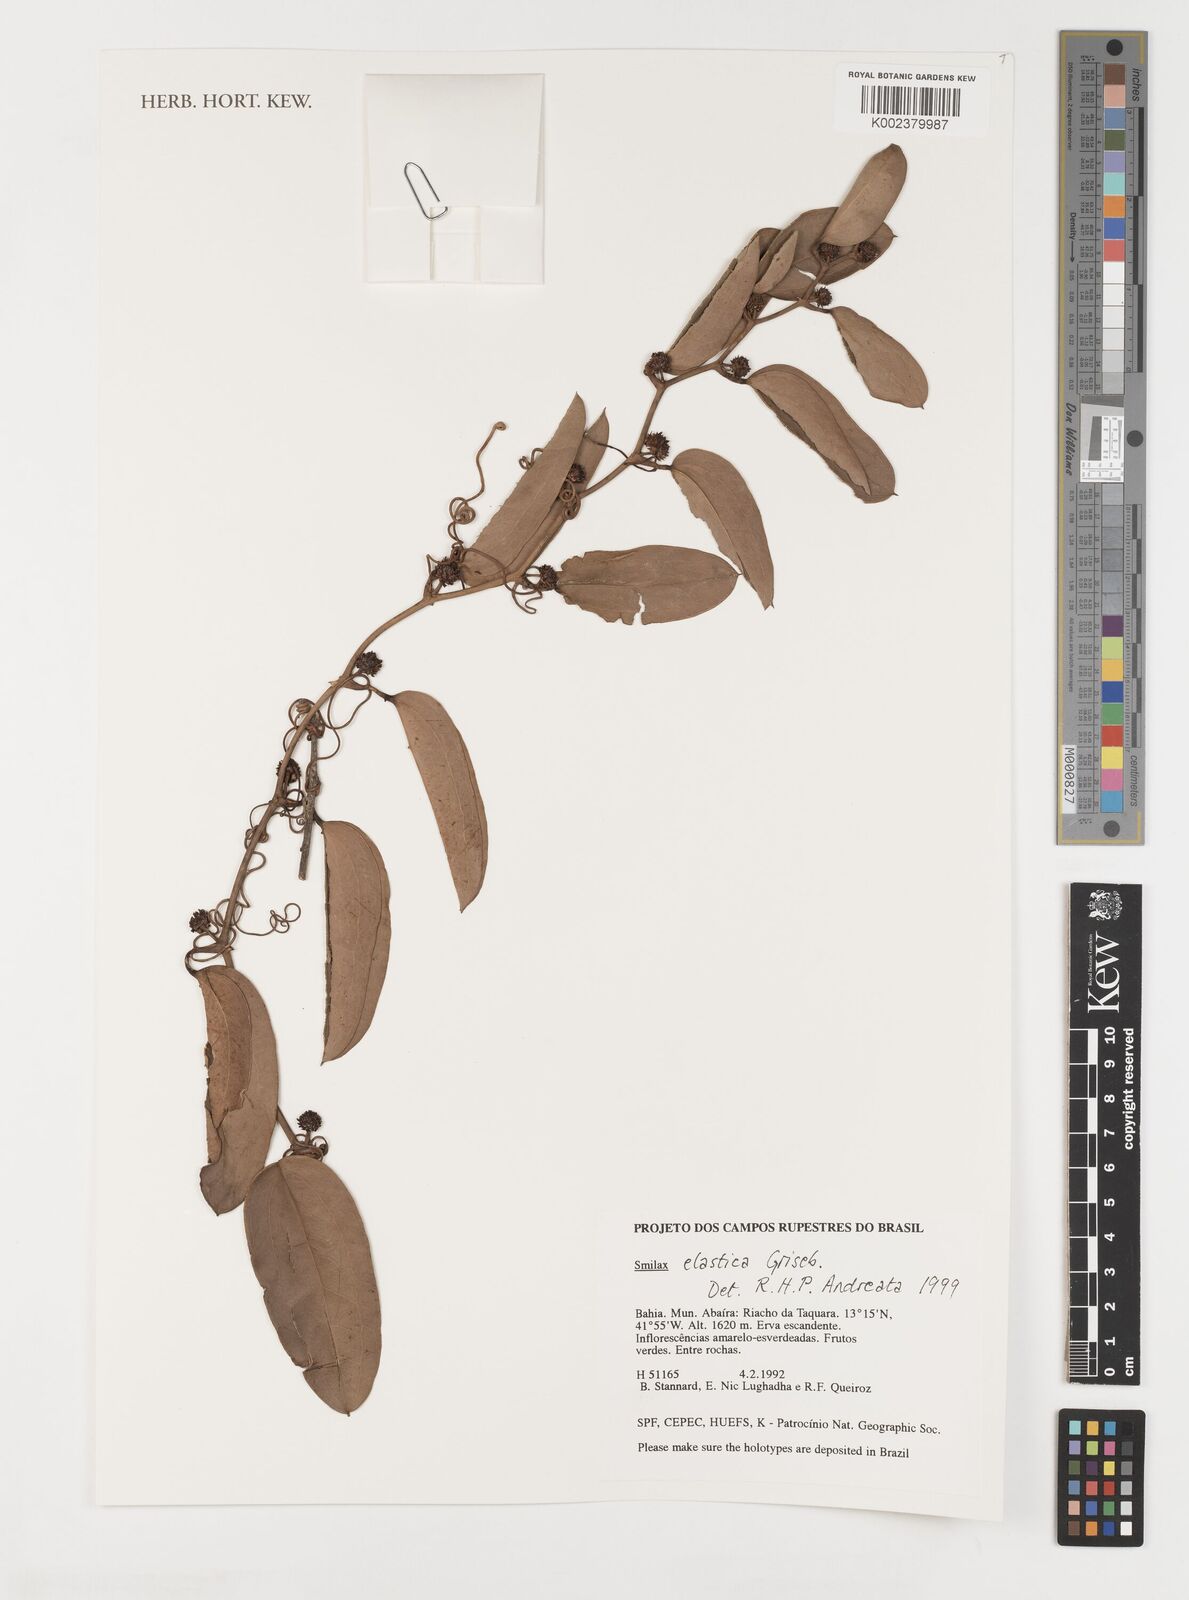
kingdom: Plantae
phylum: Tracheophyta
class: Liliopsida
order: Liliales
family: Smilacaceae
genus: Smilax
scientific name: Smilax elastica
